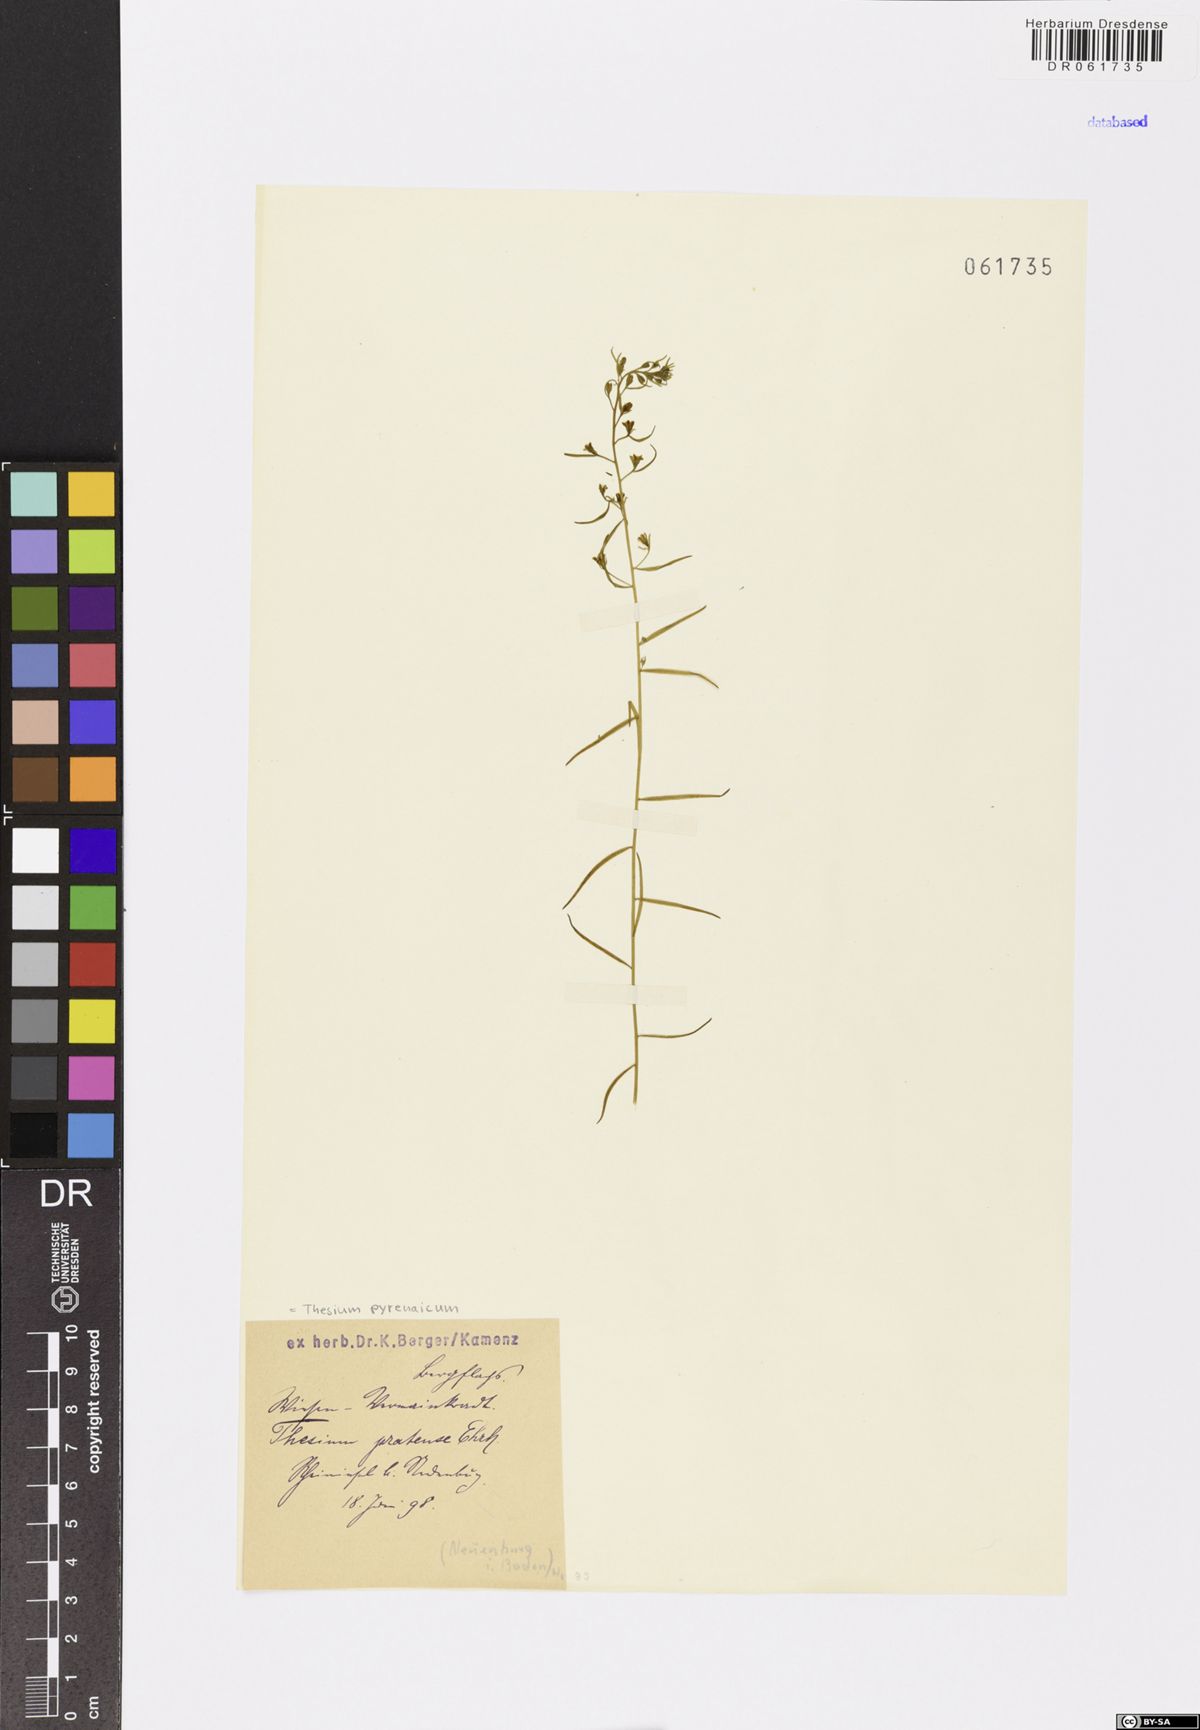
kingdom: Plantae
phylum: Tracheophyta
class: Magnoliopsida
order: Santalales
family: Thesiaceae
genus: Thesium
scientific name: Thesium pyrenaicum
